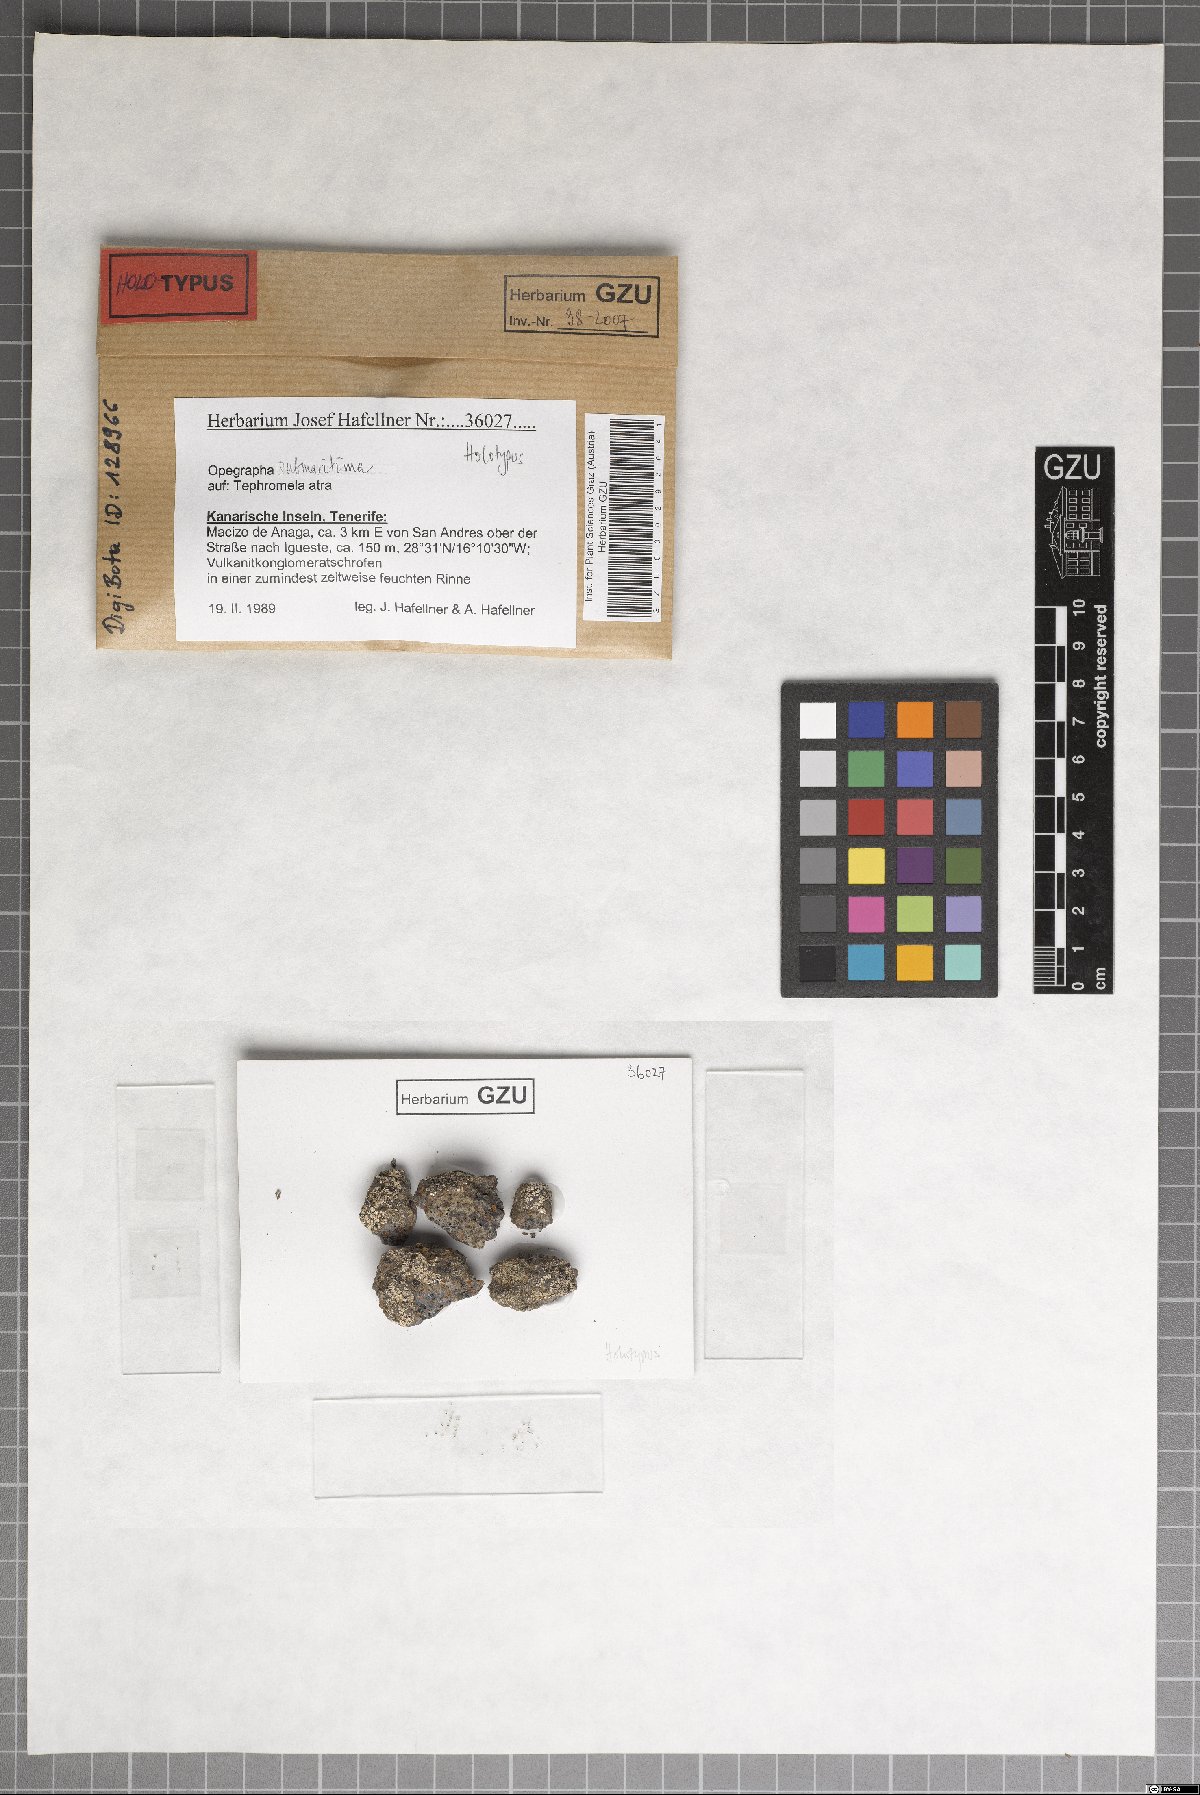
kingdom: Fungi
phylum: Ascomycota
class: Arthoniomycetes
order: Arthoniales
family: Opegraphaceae
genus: Opegrapha
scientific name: Opegrapha submaritima
